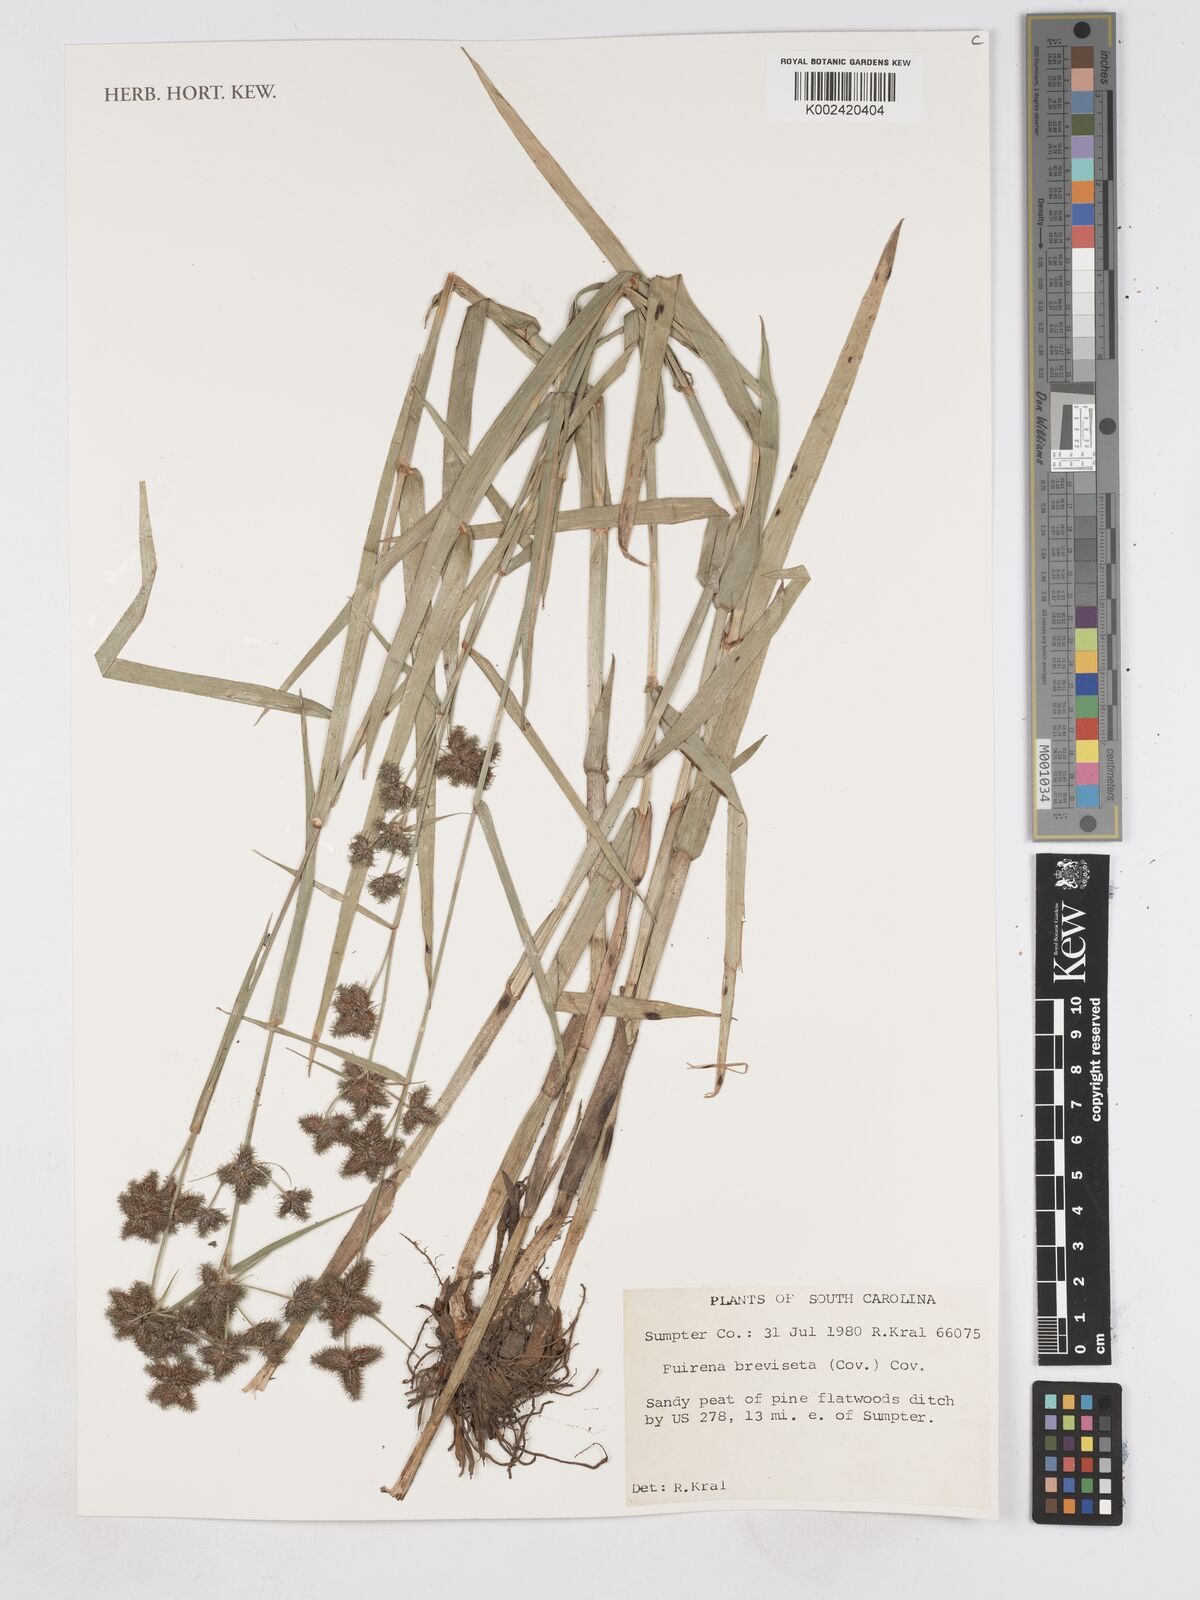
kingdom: Plantae
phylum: Tracheophyta
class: Liliopsida
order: Poales
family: Cyperaceae
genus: Fuirena
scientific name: Fuirena breviseta
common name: Saltmarsh umbrella sedge
